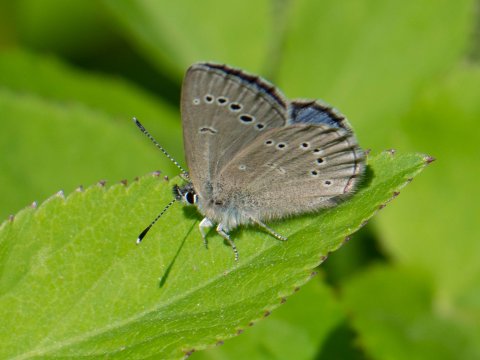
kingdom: Animalia
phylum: Arthropoda
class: Insecta
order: Lepidoptera
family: Lycaenidae
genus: Glaucopsyche
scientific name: Glaucopsyche lygdamus
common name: Silvery Blue
